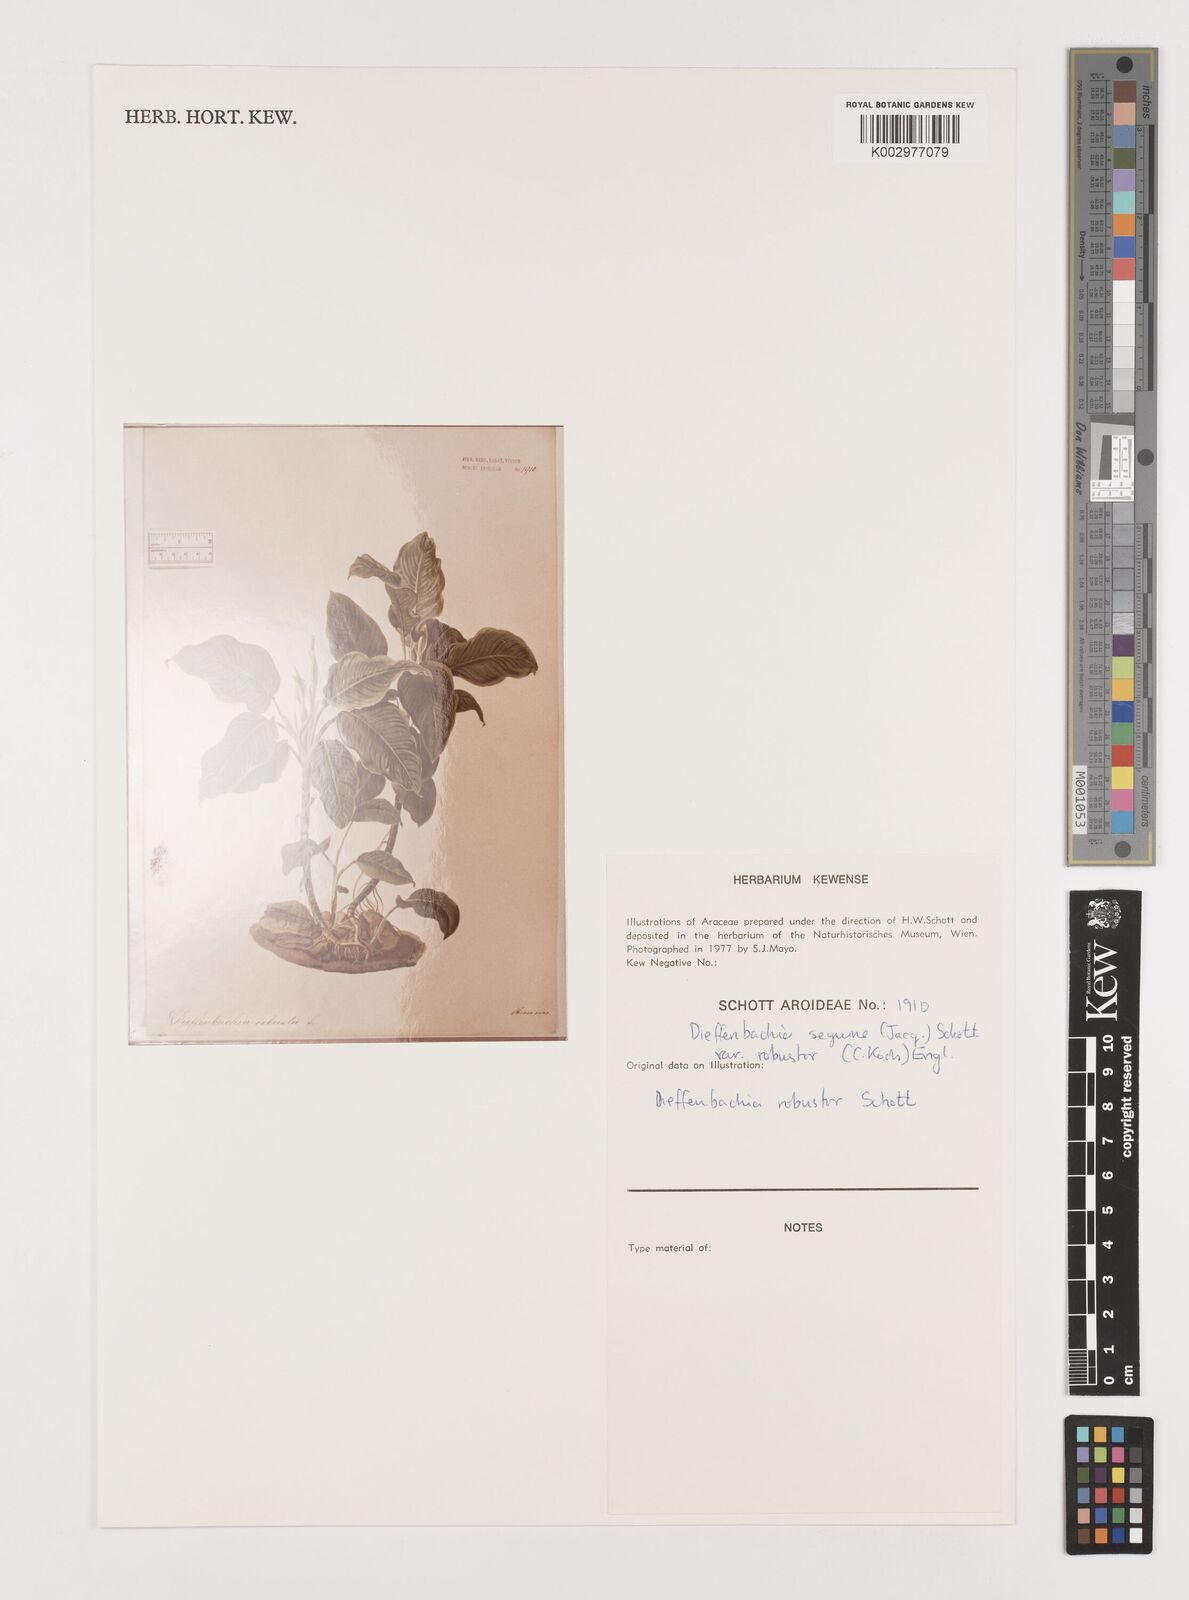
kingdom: Plantae
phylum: Tracheophyta
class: Liliopsida
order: Alismatales
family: Araceae
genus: Dieffenbachia
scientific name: Dieffenbachia seguine
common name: Dumbcane
